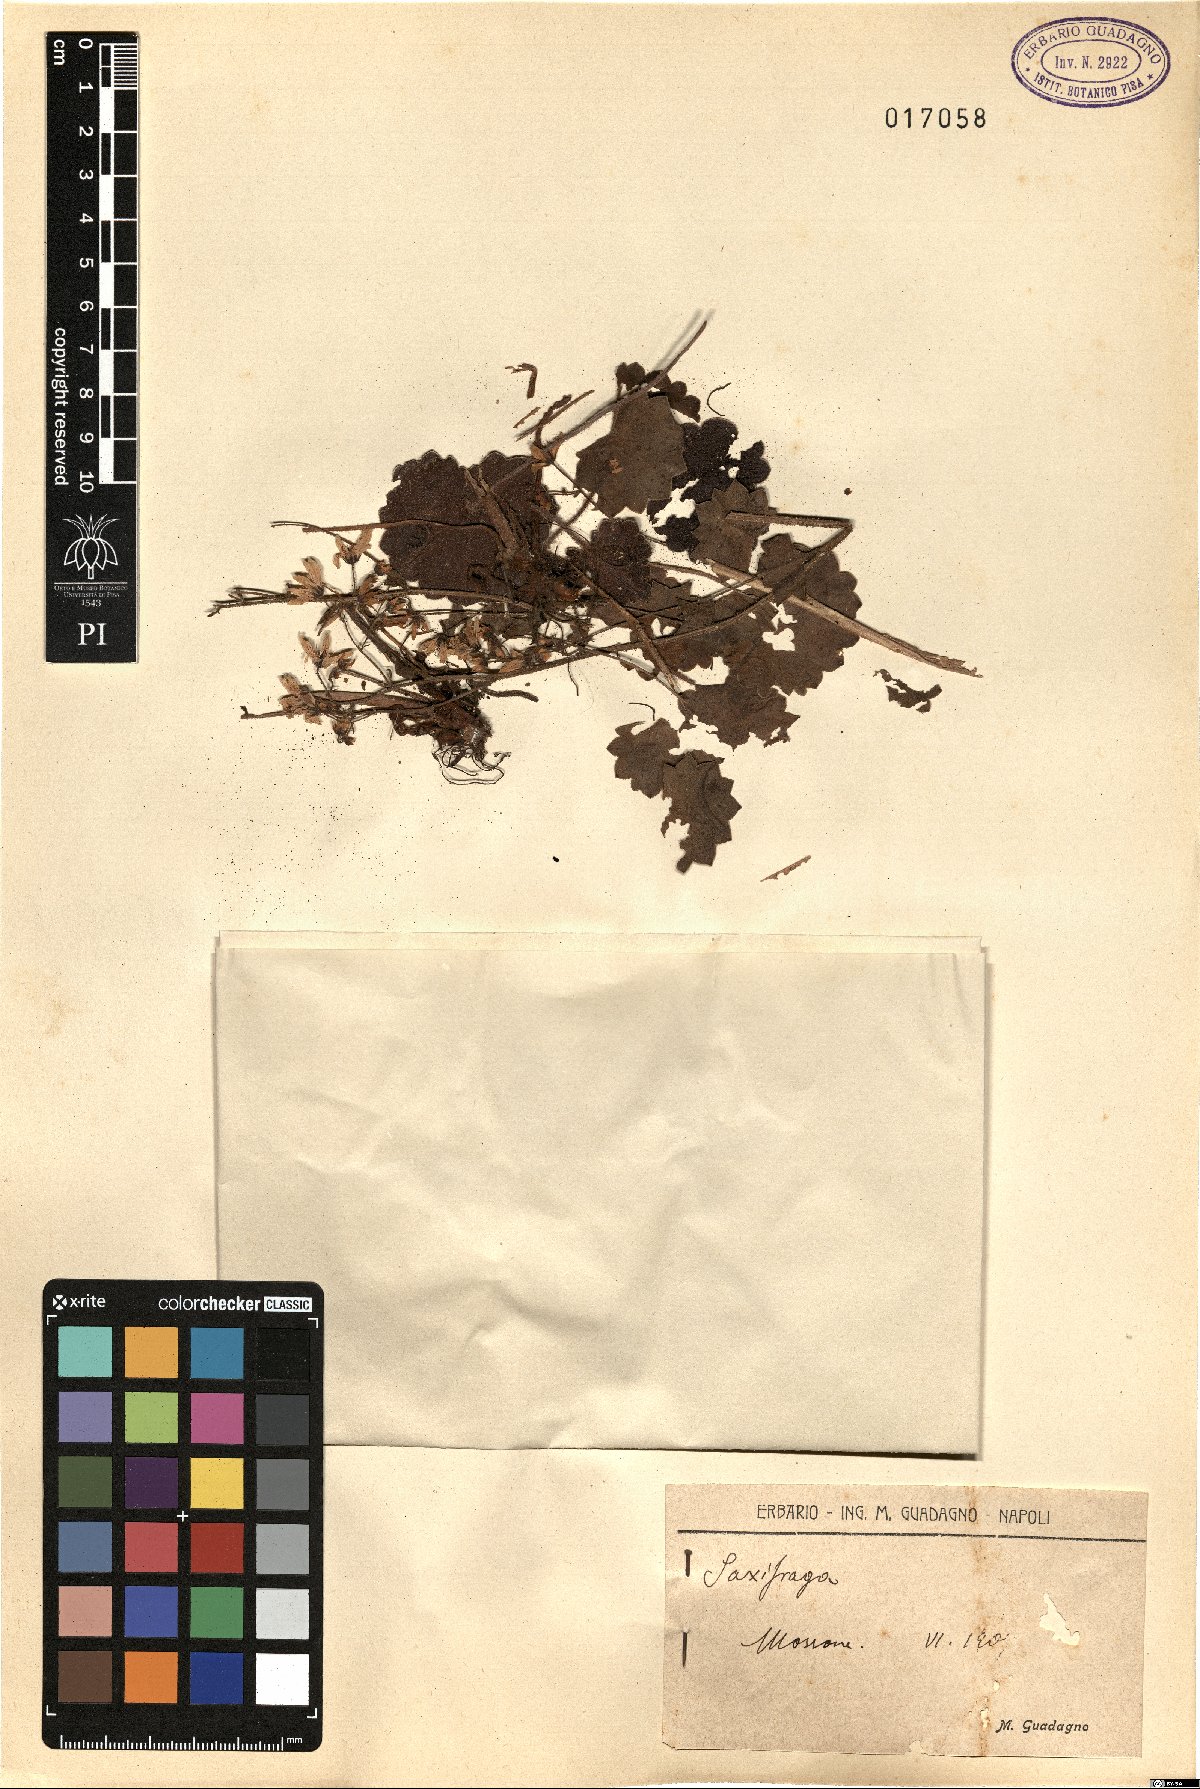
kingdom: Plantae
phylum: Tracheophyta
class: Magnoliopsida
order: Saxifragales
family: Saxifragaceae
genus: Saxifraga
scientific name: Saxifraga
